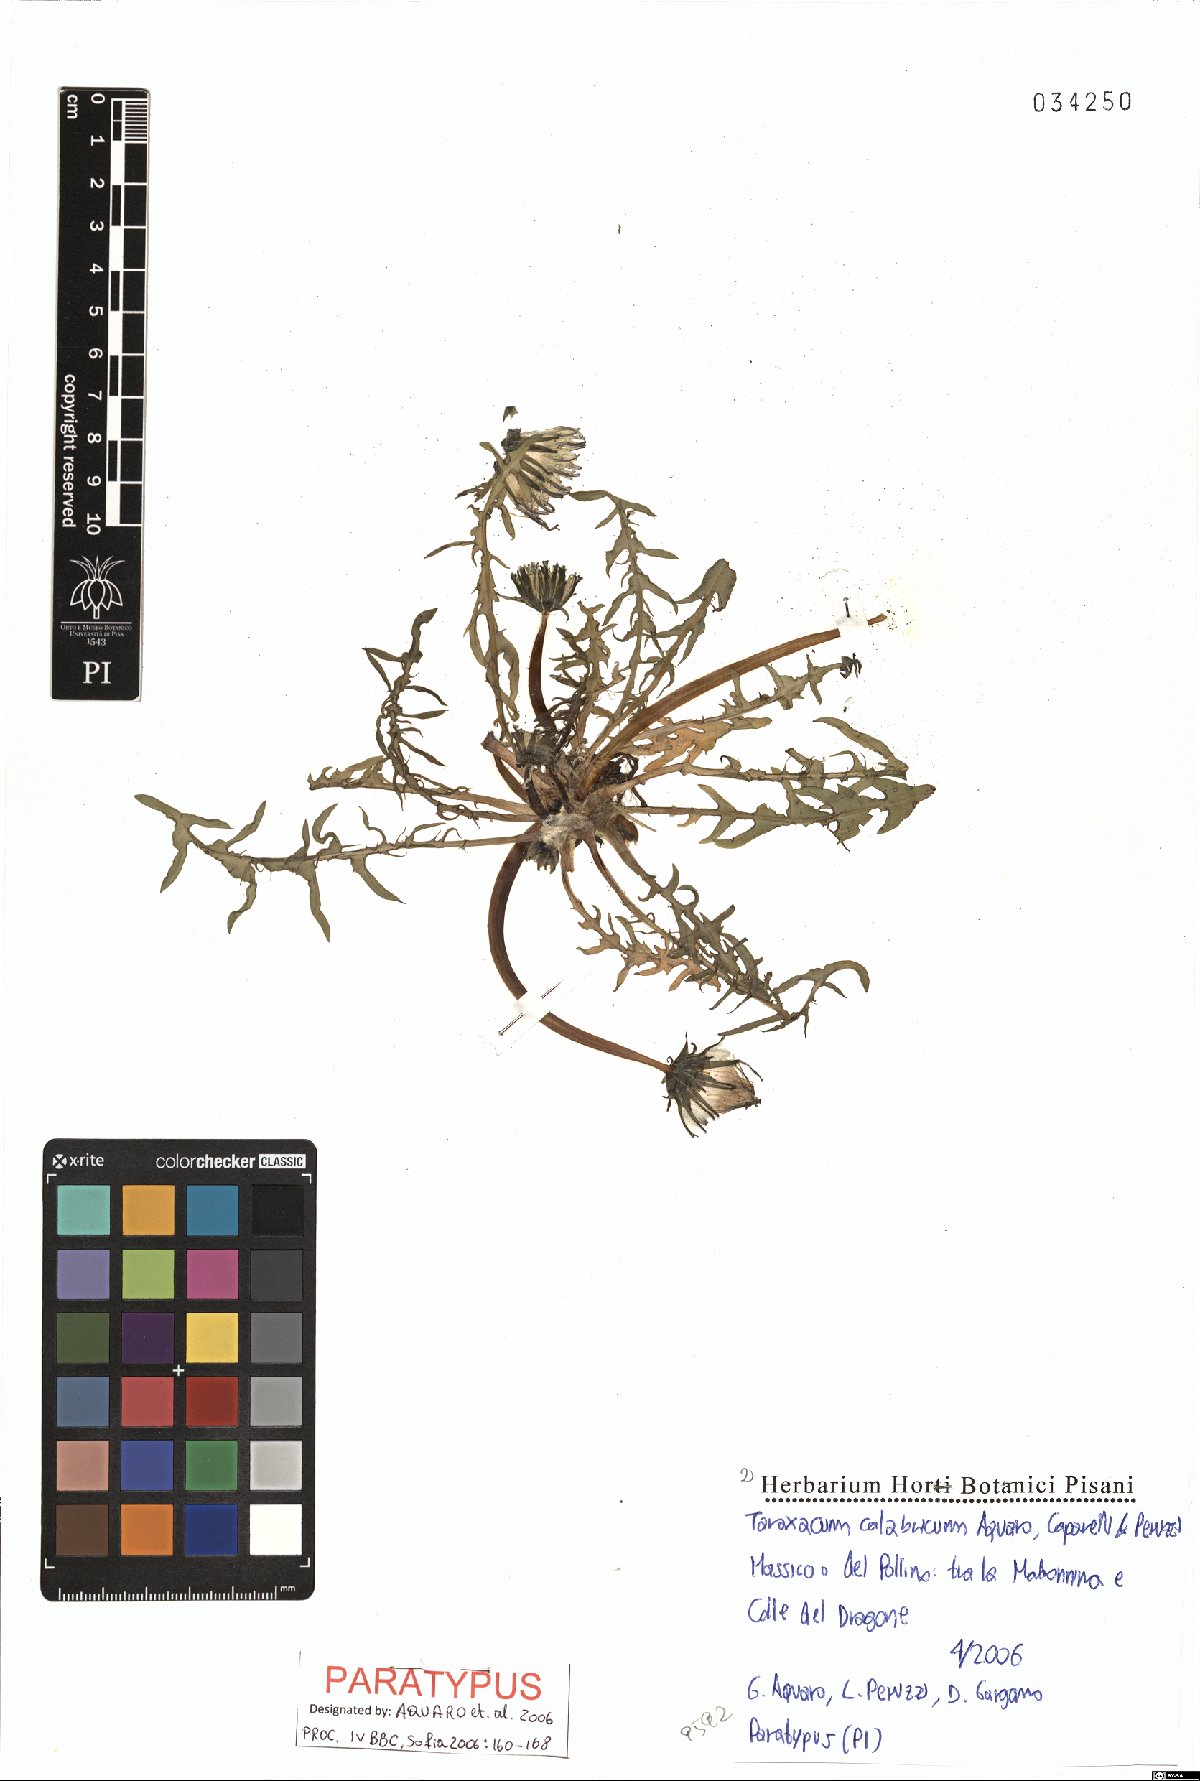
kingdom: Plantae
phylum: Tracheophyta
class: Magnoliopsida
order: Asterales
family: Asteraceae
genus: Taraxacum
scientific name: Taraxacum calabricum
